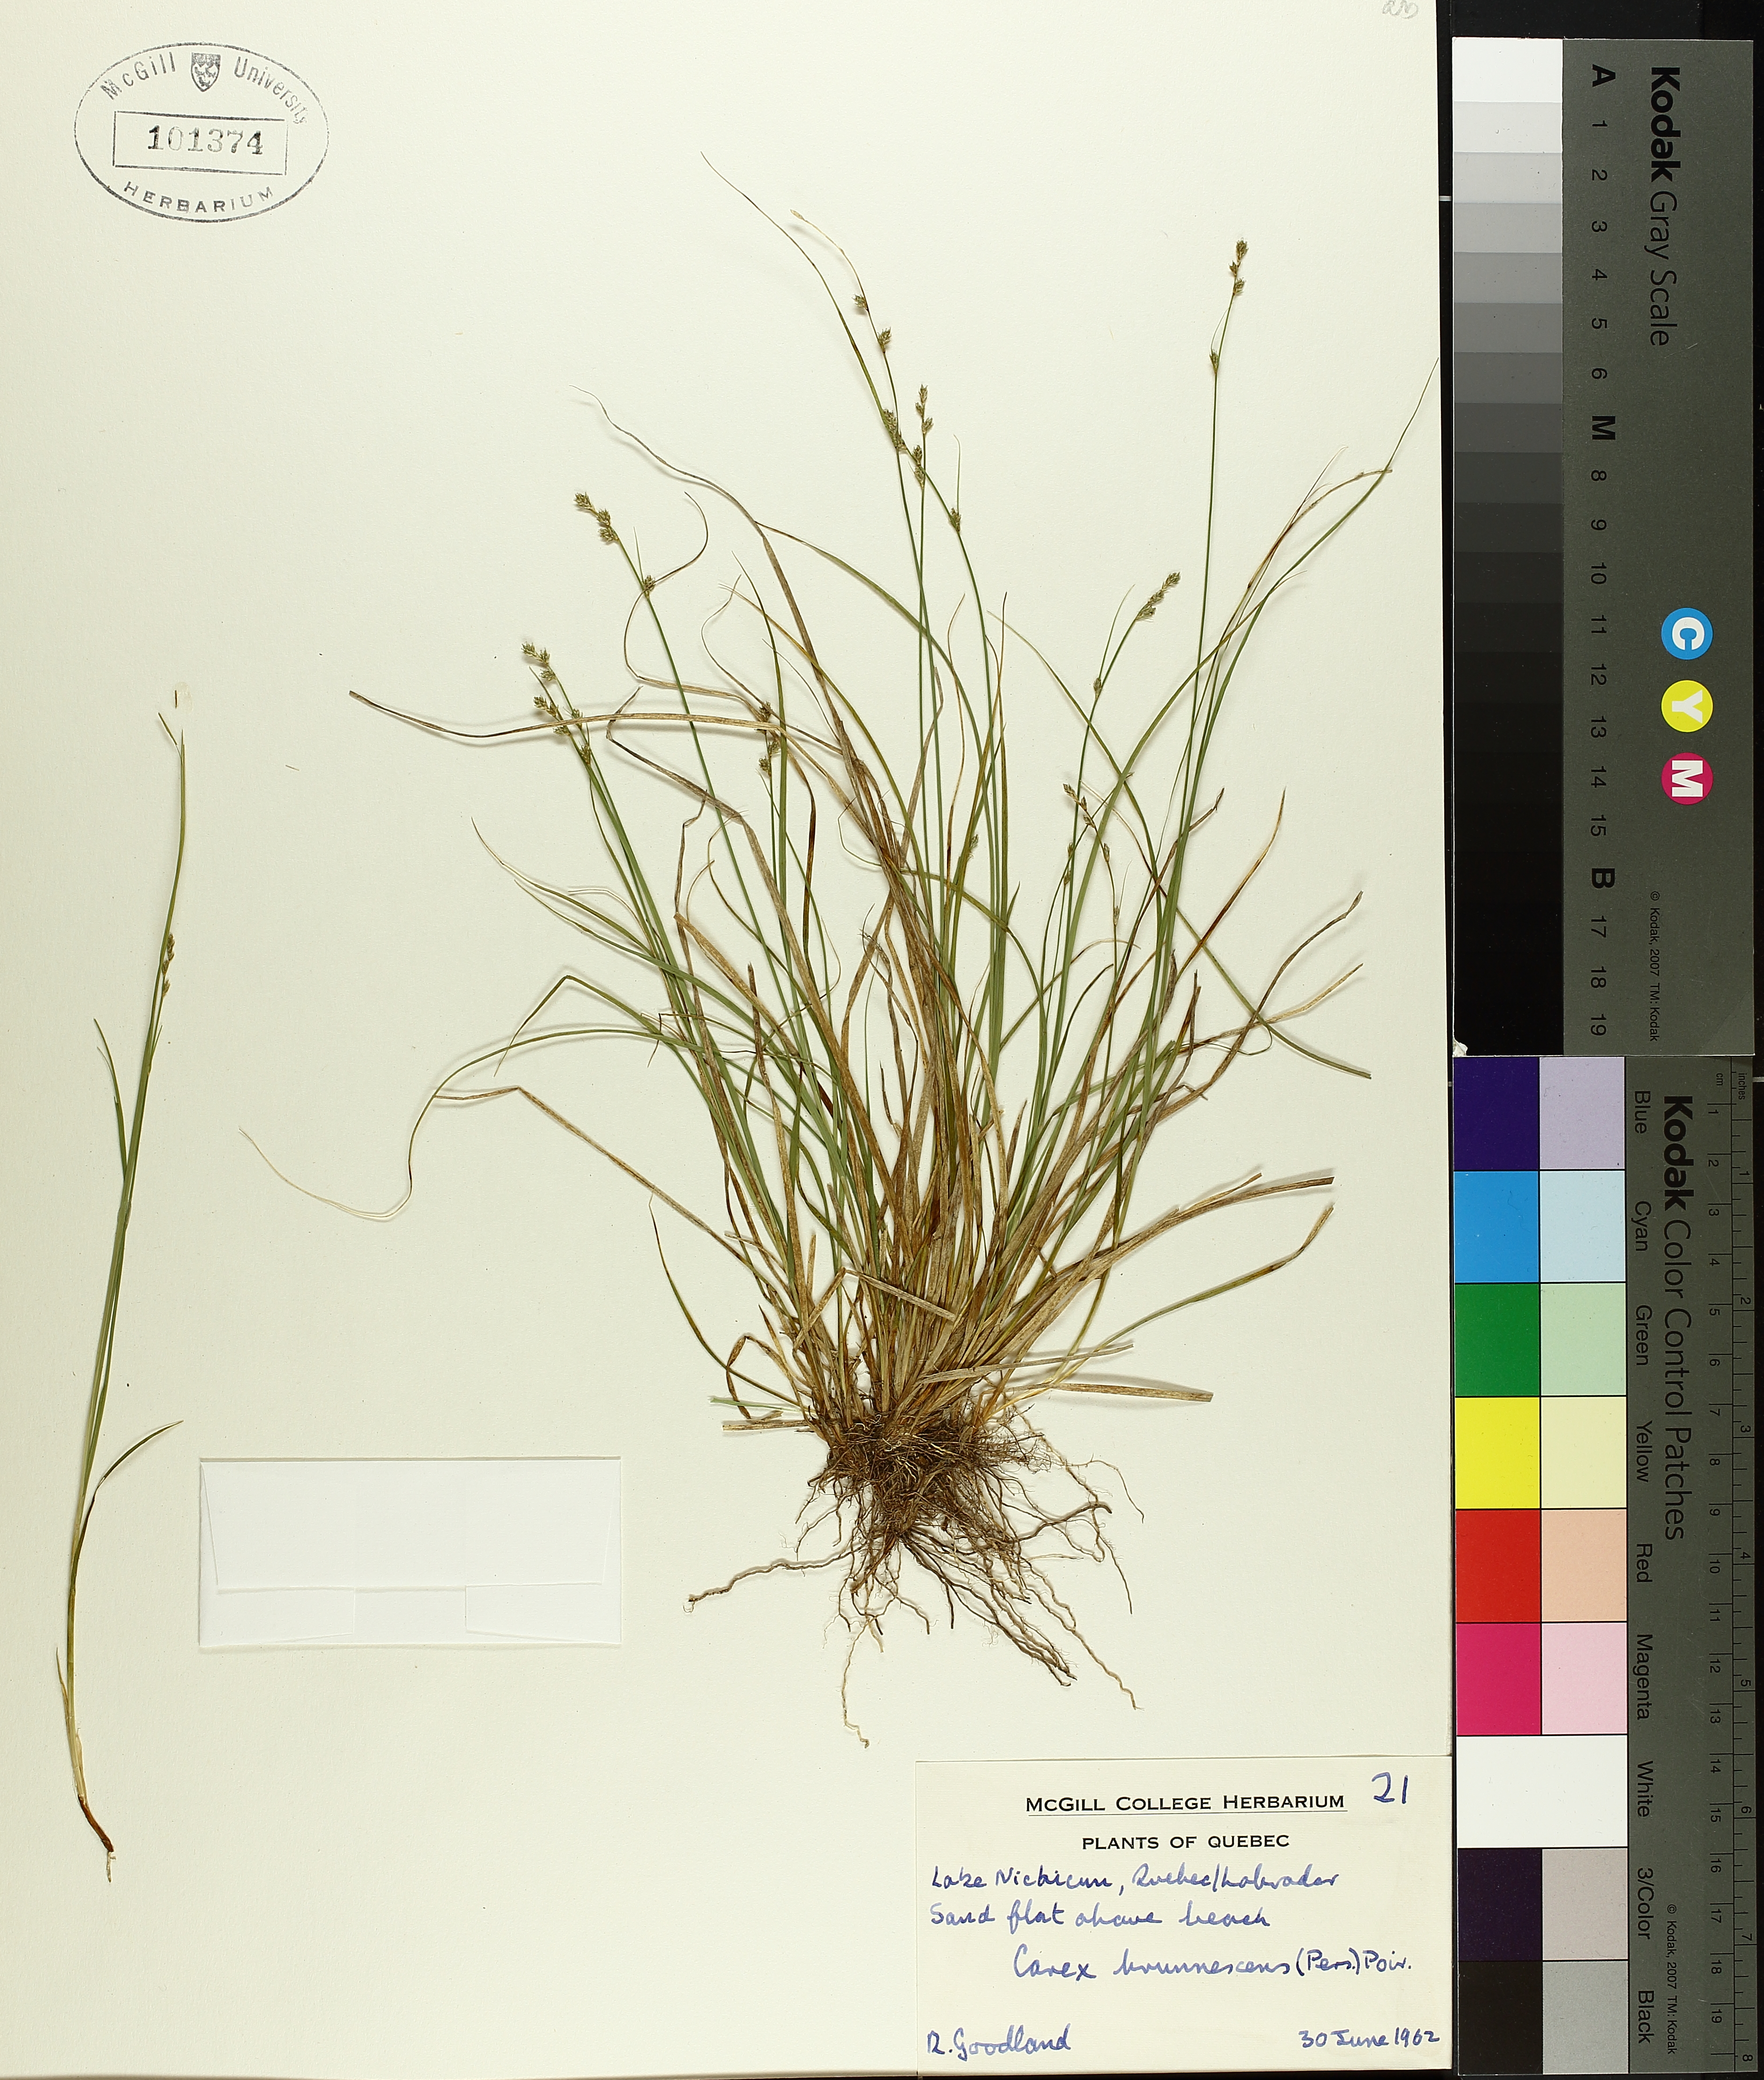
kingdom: Plantae
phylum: Tracheophyta
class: Liliopsida
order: Poales
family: Cyperaceae
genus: Carex
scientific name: Carex brunnescens
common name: Brown sedge
